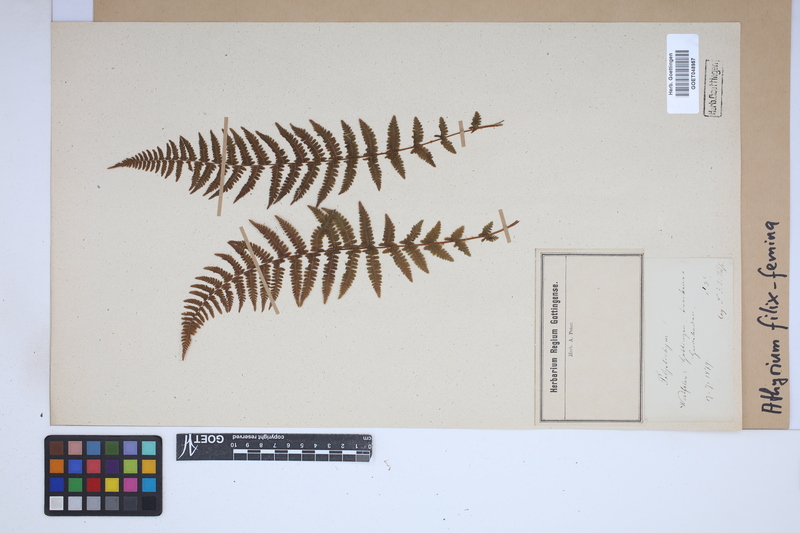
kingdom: Plantae
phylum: Tracheophyta
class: Polypodiopsida
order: Polypodiales
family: Athyriaceae
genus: Athyrium
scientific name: Athyrium filix-femina
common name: Lady fern
